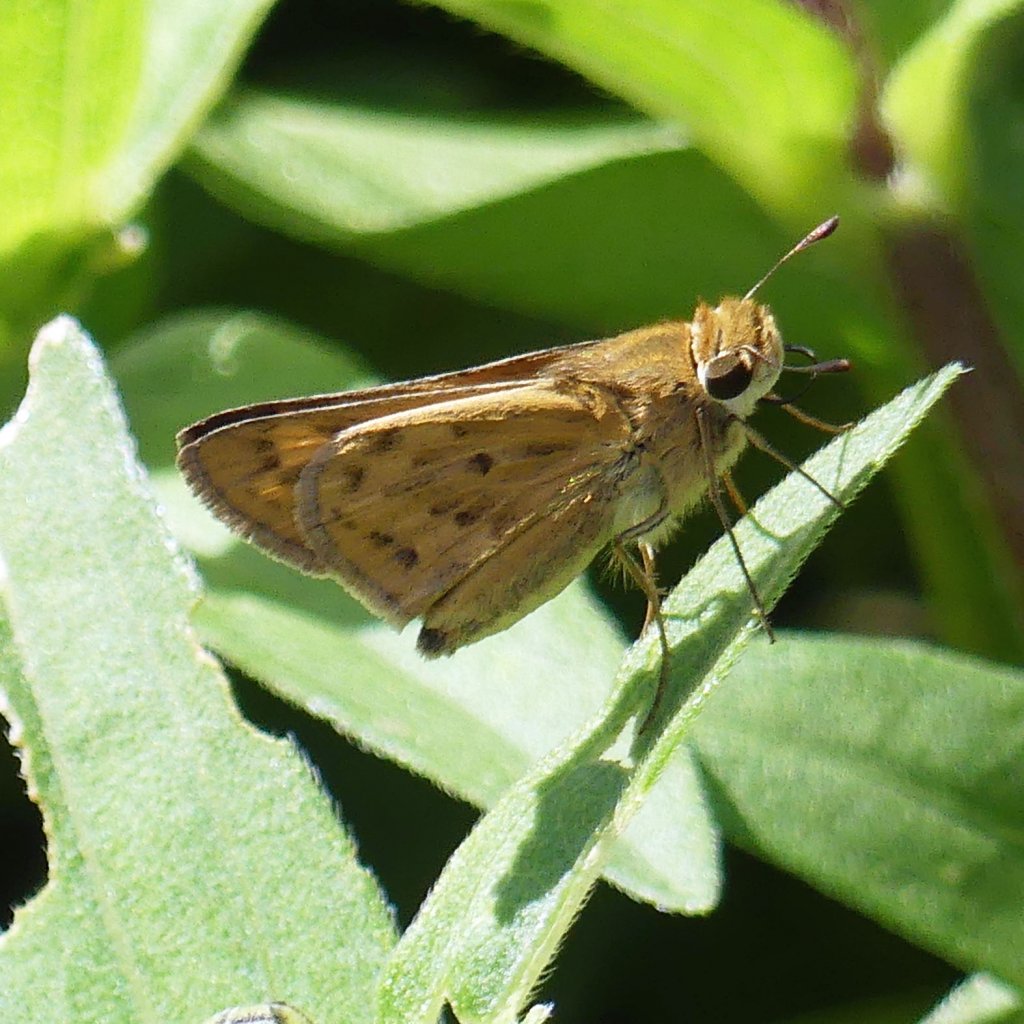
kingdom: Animalia
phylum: Arthropoda
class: Insecta
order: Lepidoptera
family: Hesperiidae
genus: Hylephila
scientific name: Hylephila phyleus
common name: Fiery Skipper
